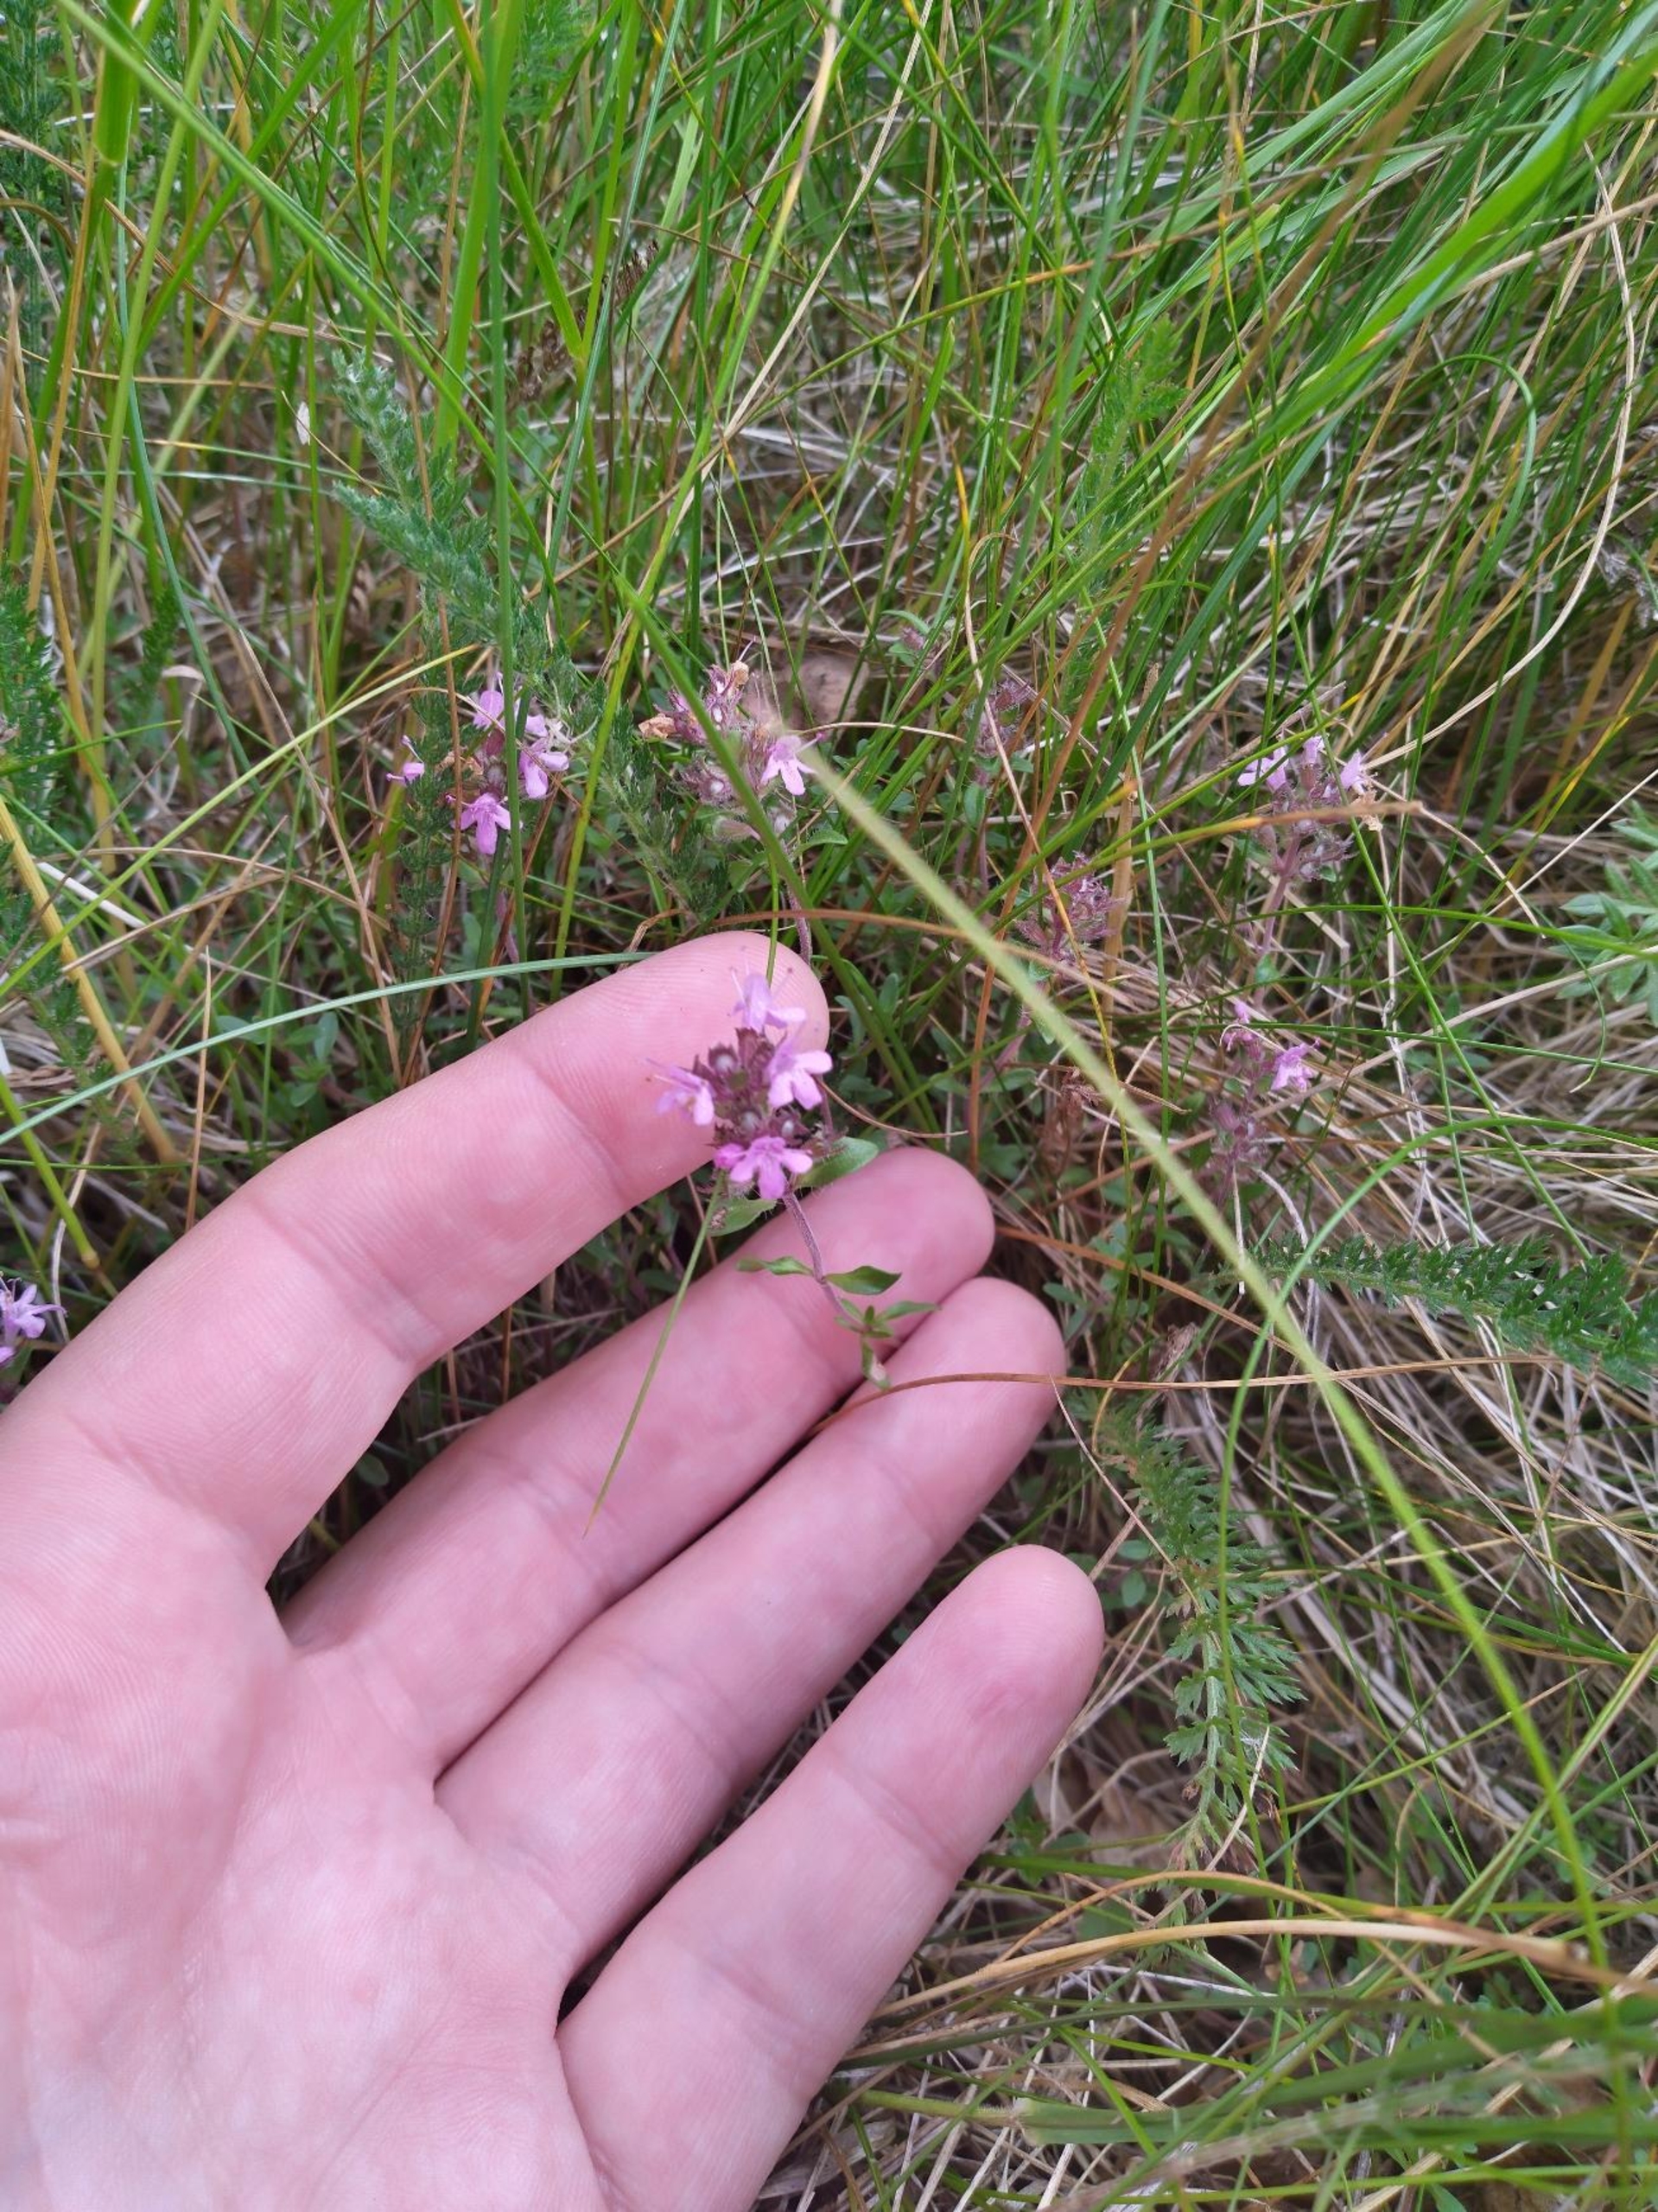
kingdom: Plantae
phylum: Tracheophyta
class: Magnoliopsida
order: Lamiales
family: Lamiaceae
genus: Thymus
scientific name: Thymus serpyllum
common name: Smalbladet timian
